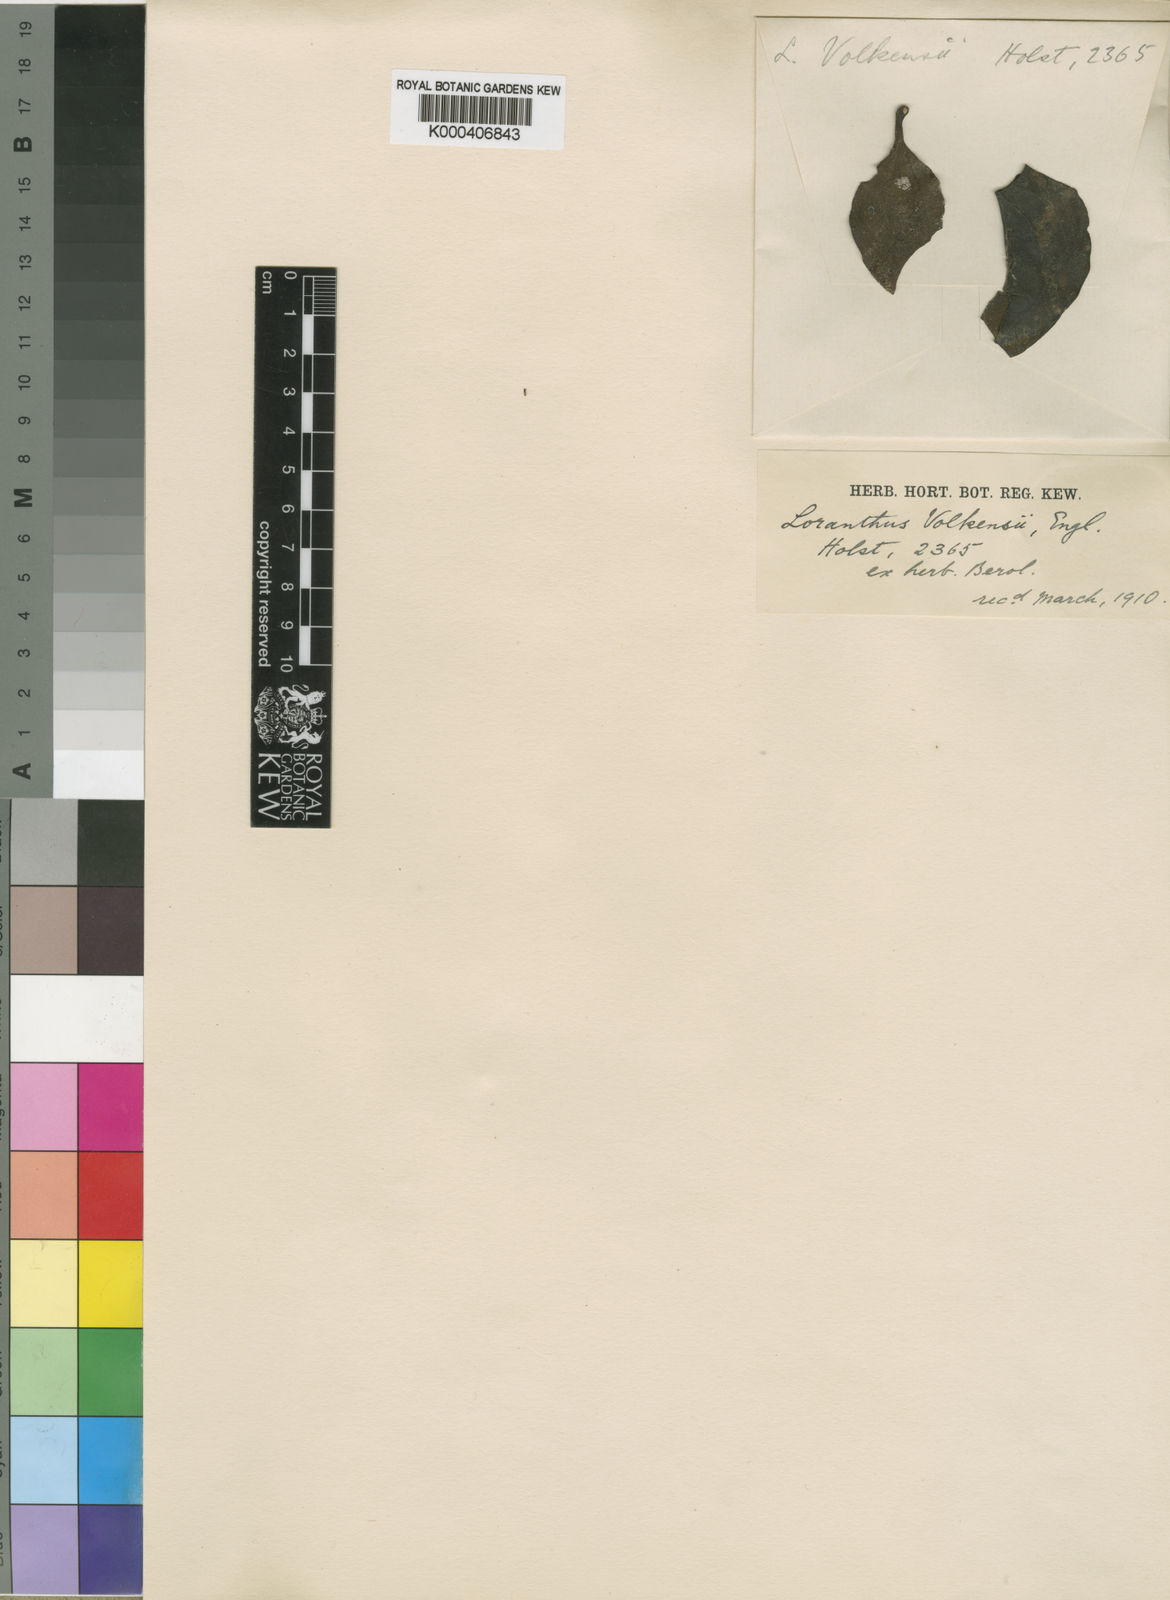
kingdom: Plantae
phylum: Tracheophyta
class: Magnoliopsida
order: Santalales
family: Loranthaceae
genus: Agelanthus
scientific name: Agelanthus sansibarensis
